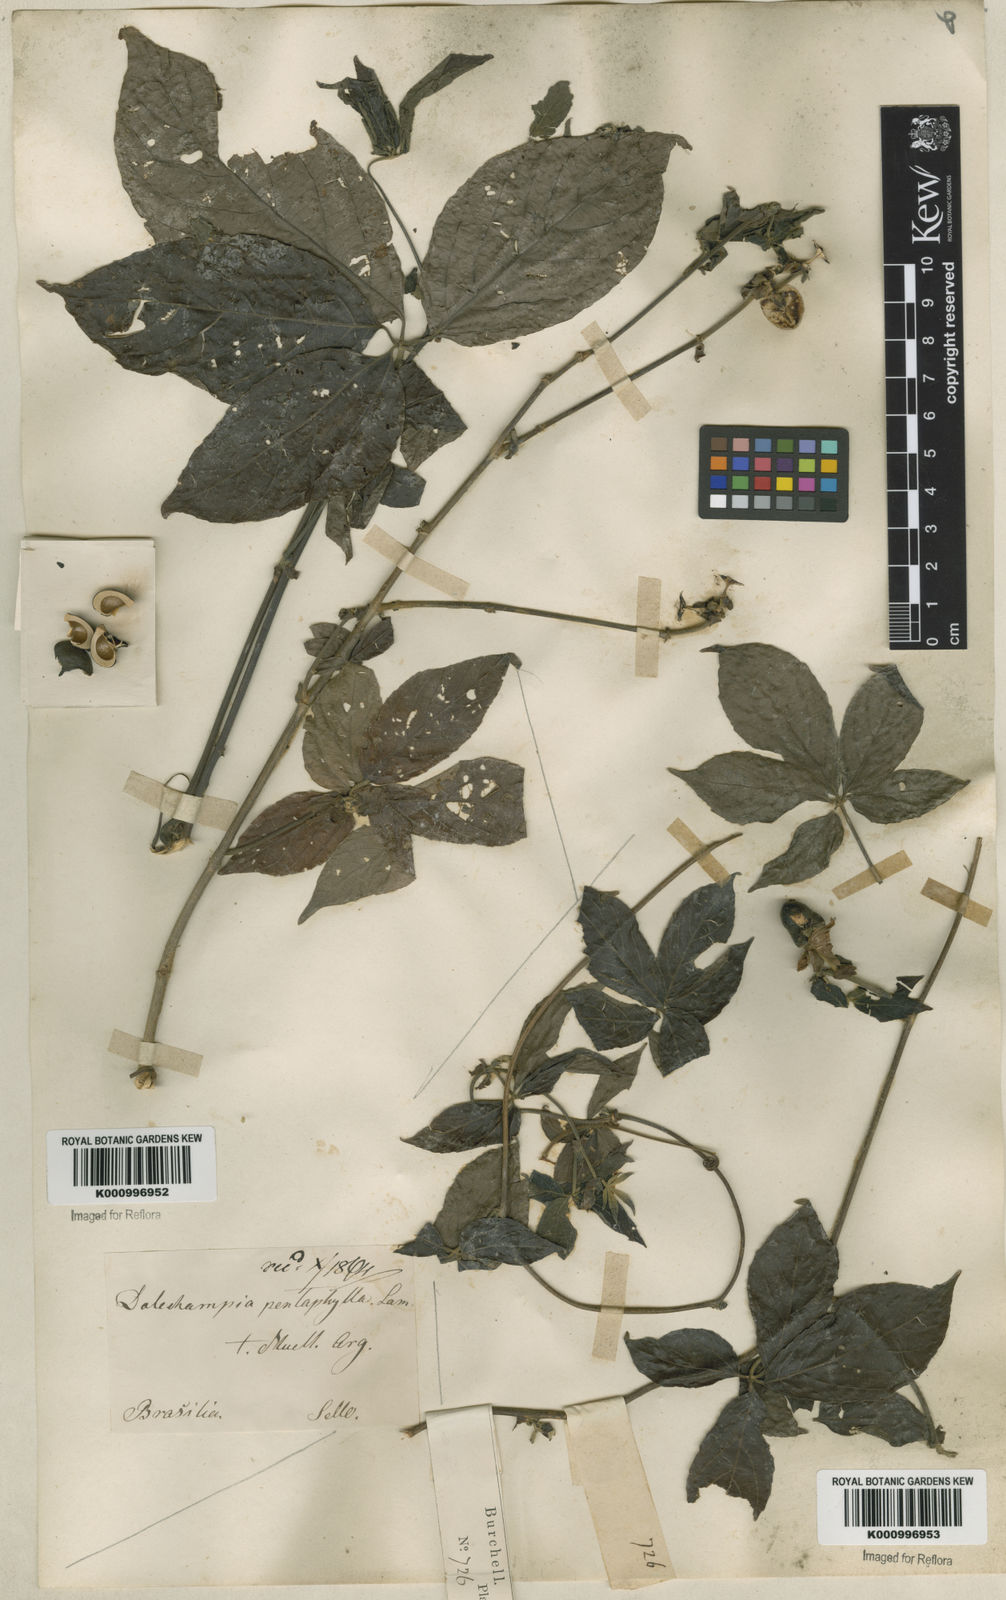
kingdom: Plantae
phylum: Tracheophyta
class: Magnoliopsida
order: Malpighiales
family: Euphorbiaceae
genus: Dalechampia
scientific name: Dalechampia pentaphylla
